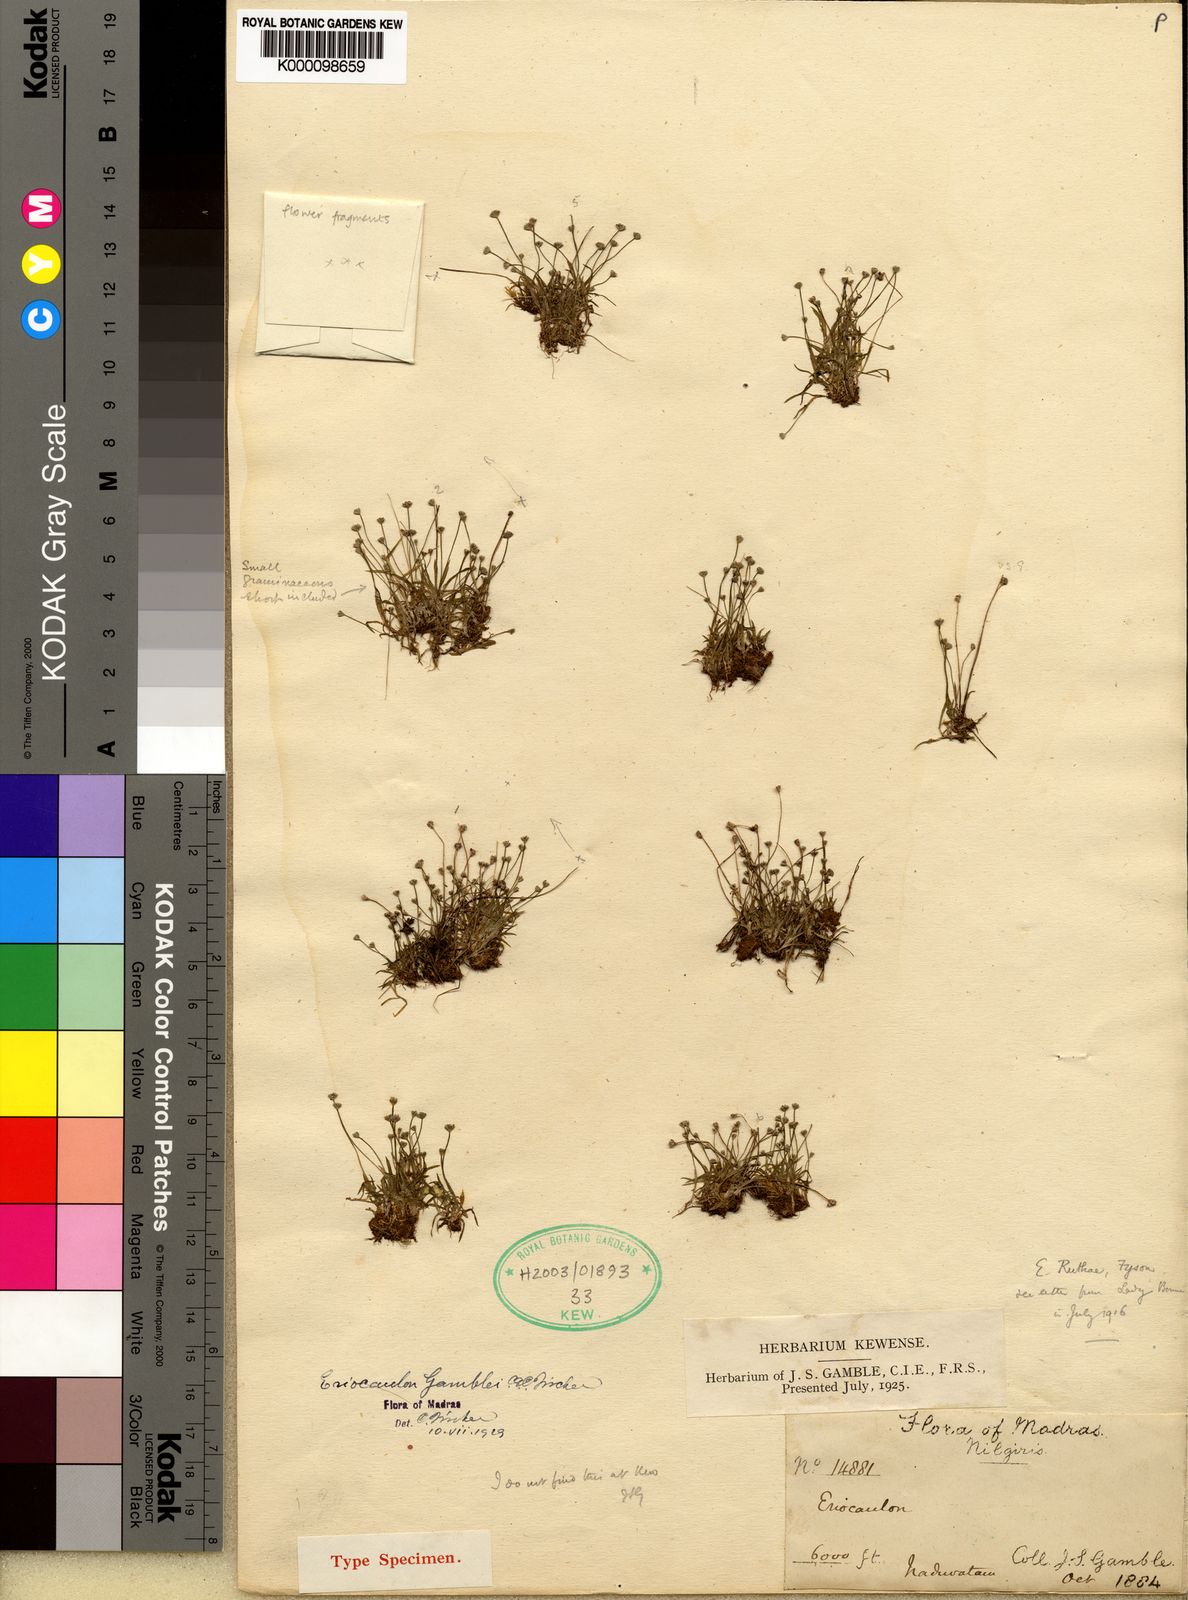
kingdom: Plantae
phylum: Tracheophyta
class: Liliopsida
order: Poales
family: Eriocaulaceae
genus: Eriocaulon
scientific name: Eriocaulon
